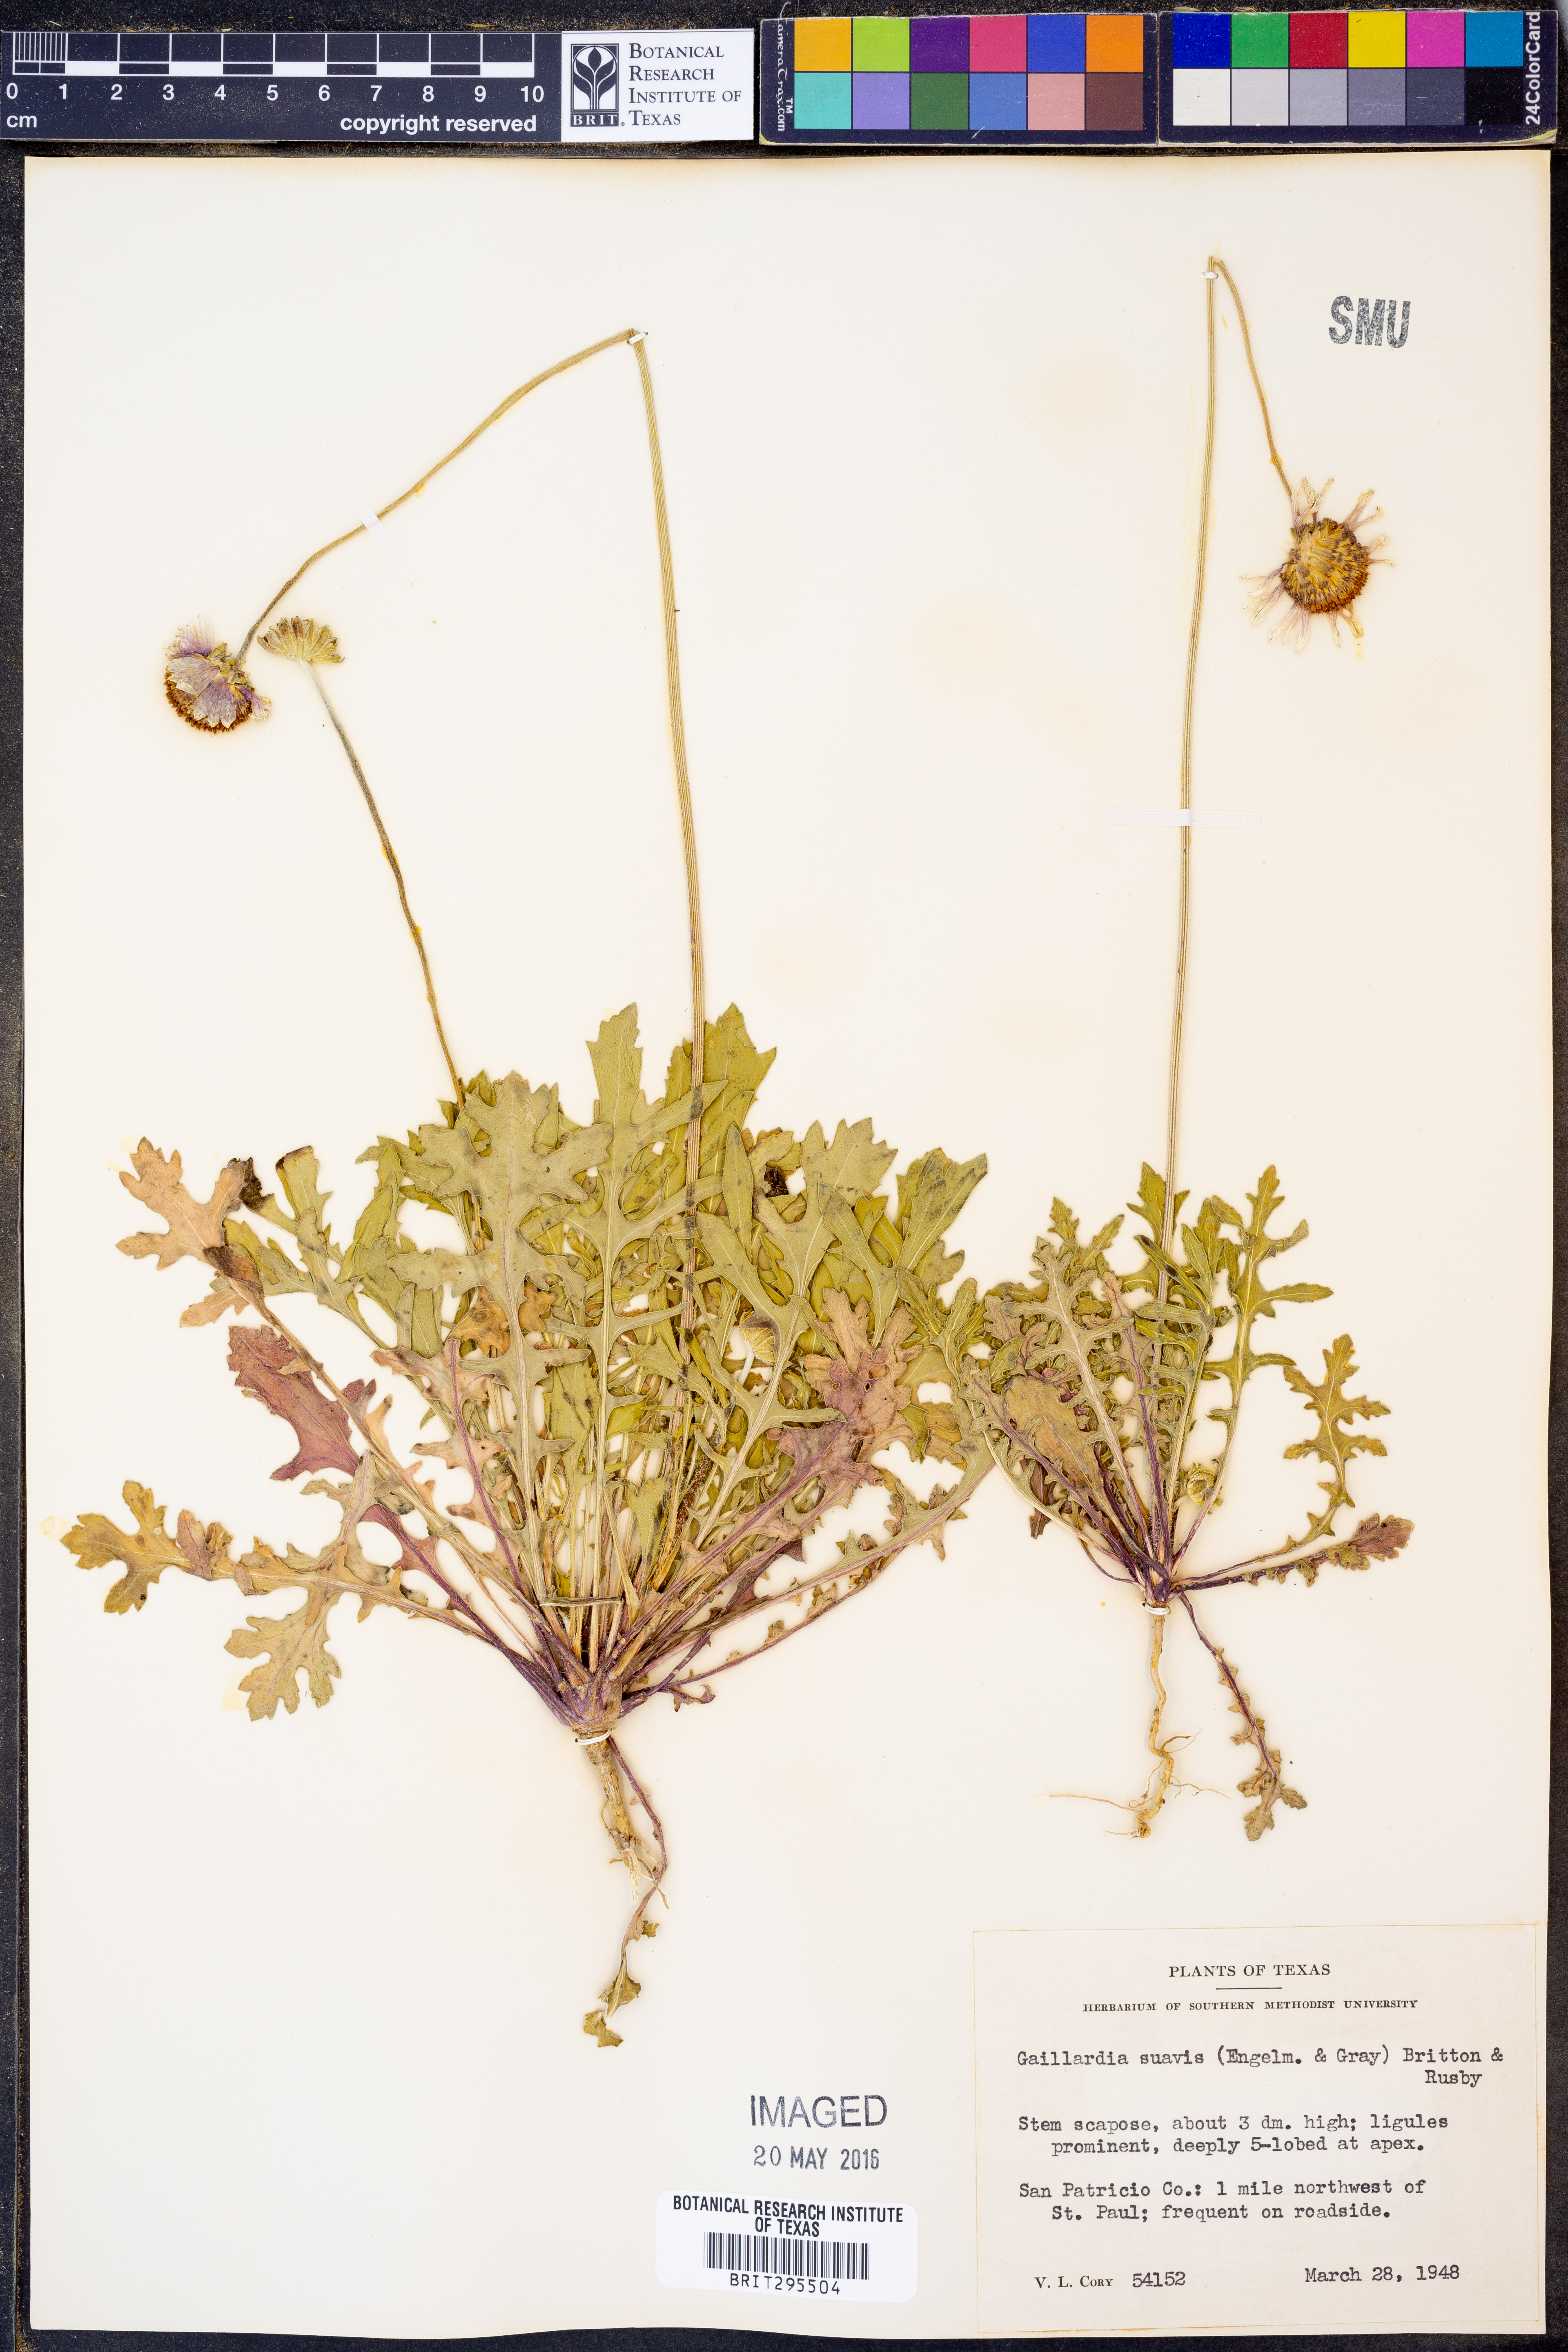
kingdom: Plantae
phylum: Tracheophyta
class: Magnoliopsida
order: Asterales
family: Asteraceae
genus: Gaillardia
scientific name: Gaillardia suavis
